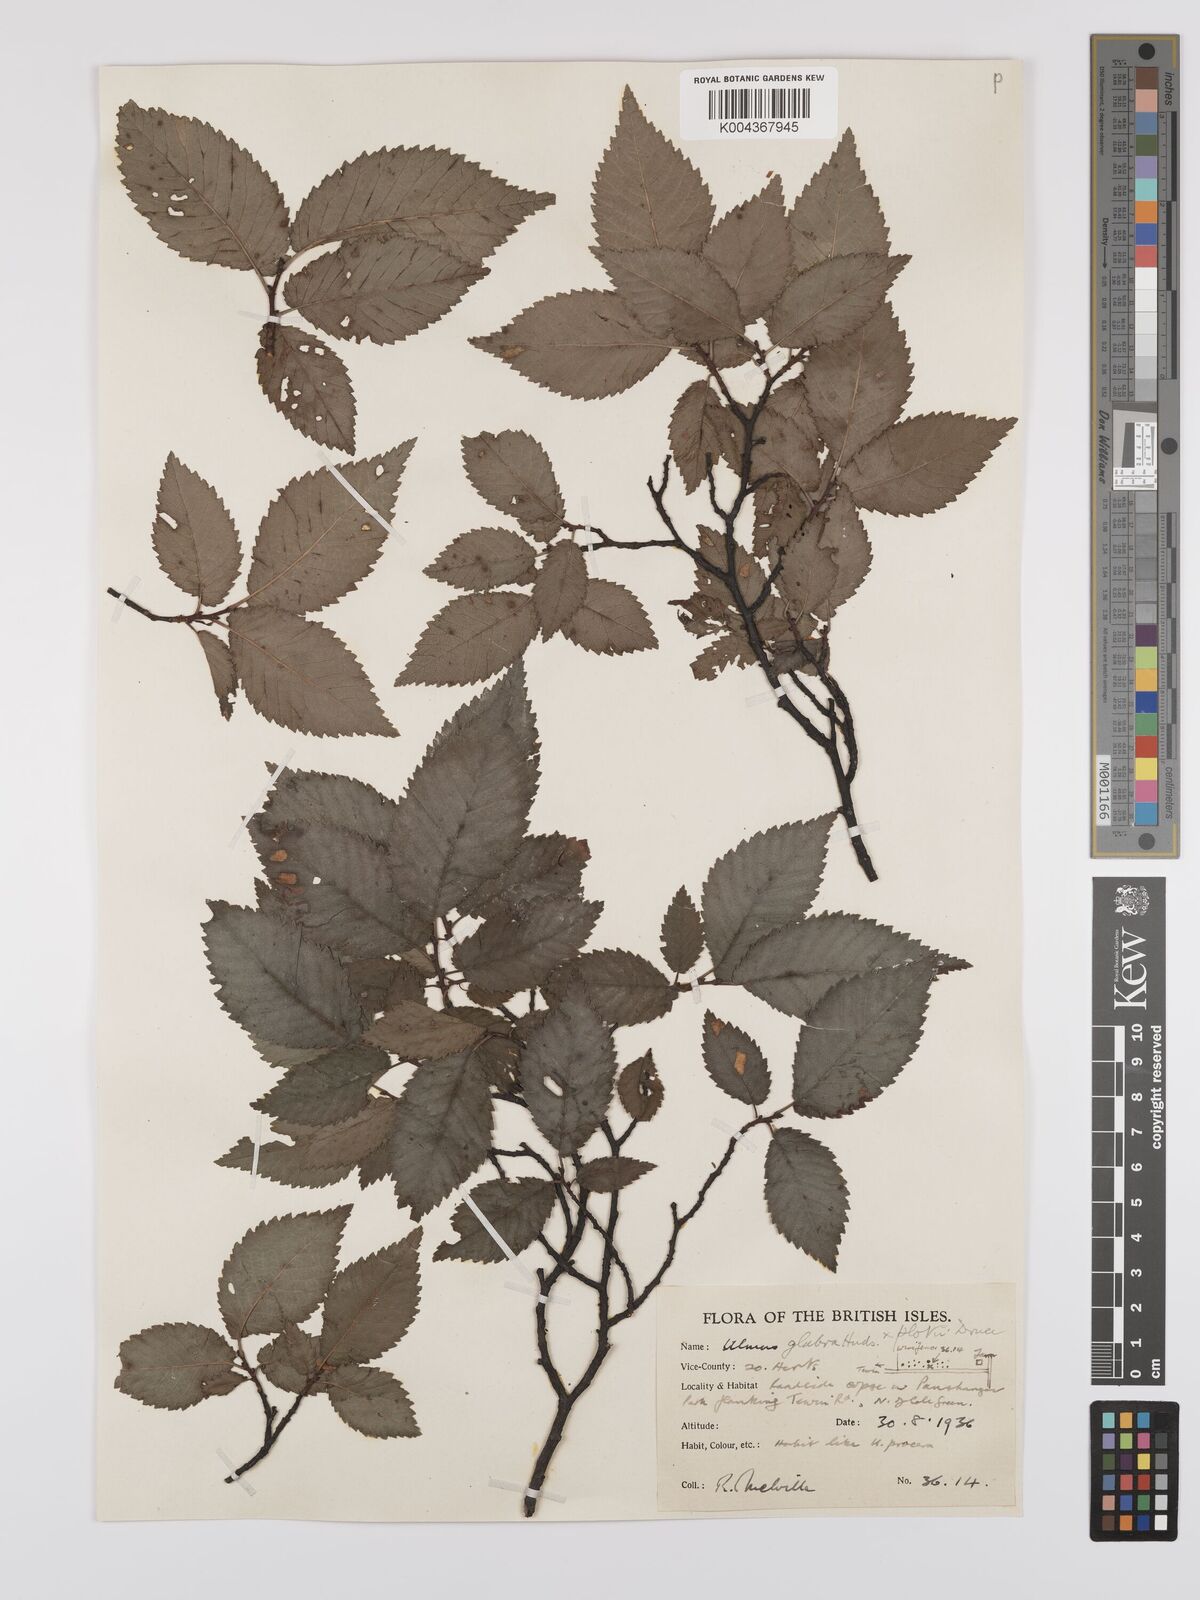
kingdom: Plantae
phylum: Tracheophyta
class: Magnoliopsida
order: Rosales
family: Ulmaceae
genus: Ulmus
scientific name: Ulmus glabra
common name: Wych elm
